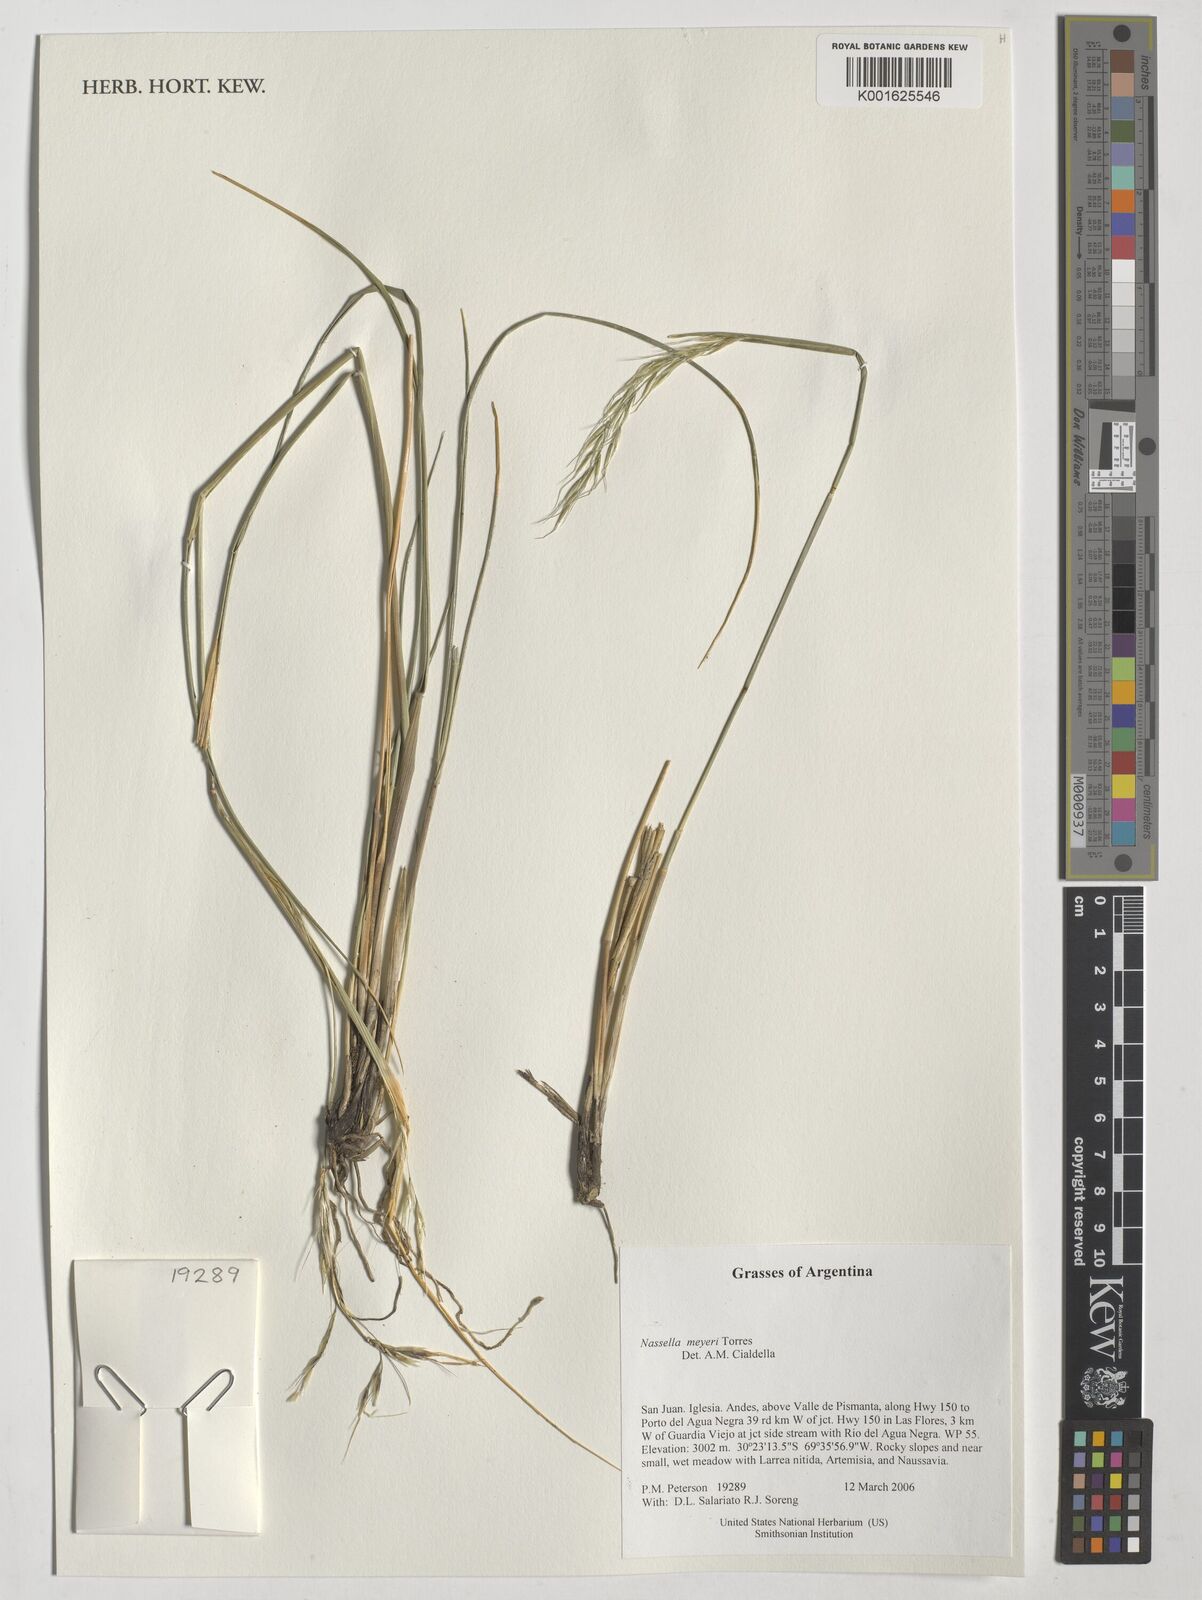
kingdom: Plantae
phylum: Tracheophyta
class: Liliopsida
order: Poales
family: Poaceae
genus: Nassella
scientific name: Nassella meyeri
